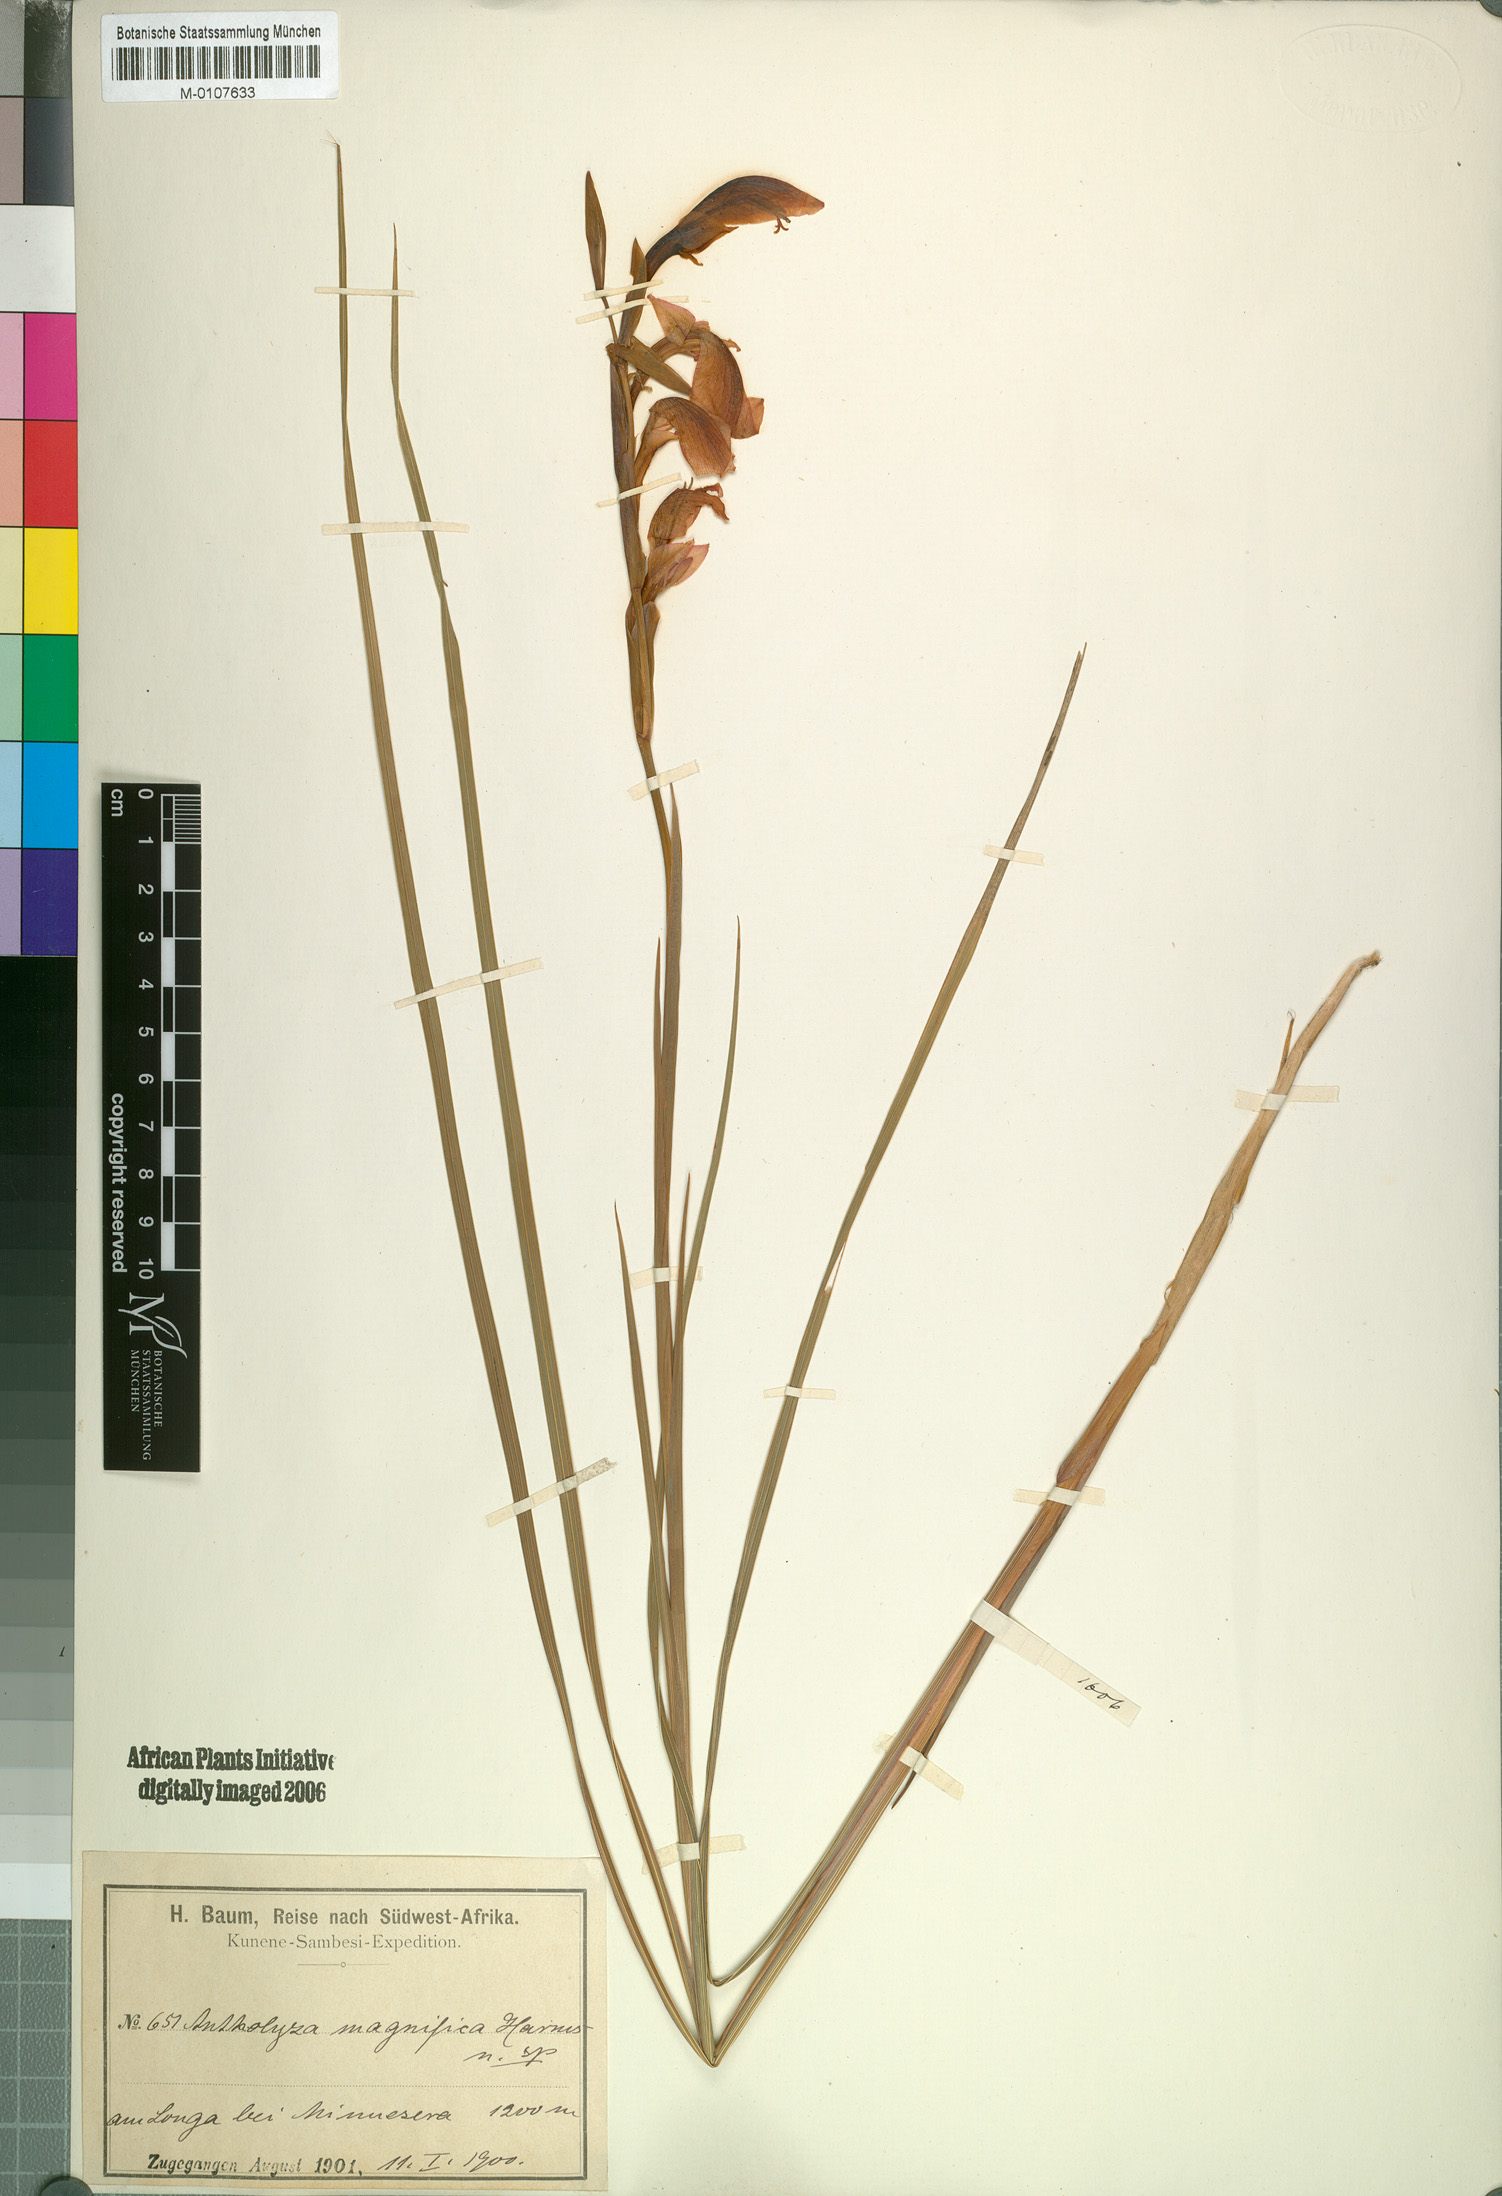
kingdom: Plantae
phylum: Tracheophyta
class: Liliopsida
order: Asparagales
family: Iridaceae
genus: Gladiolus
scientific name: Gladiolus magnificus
